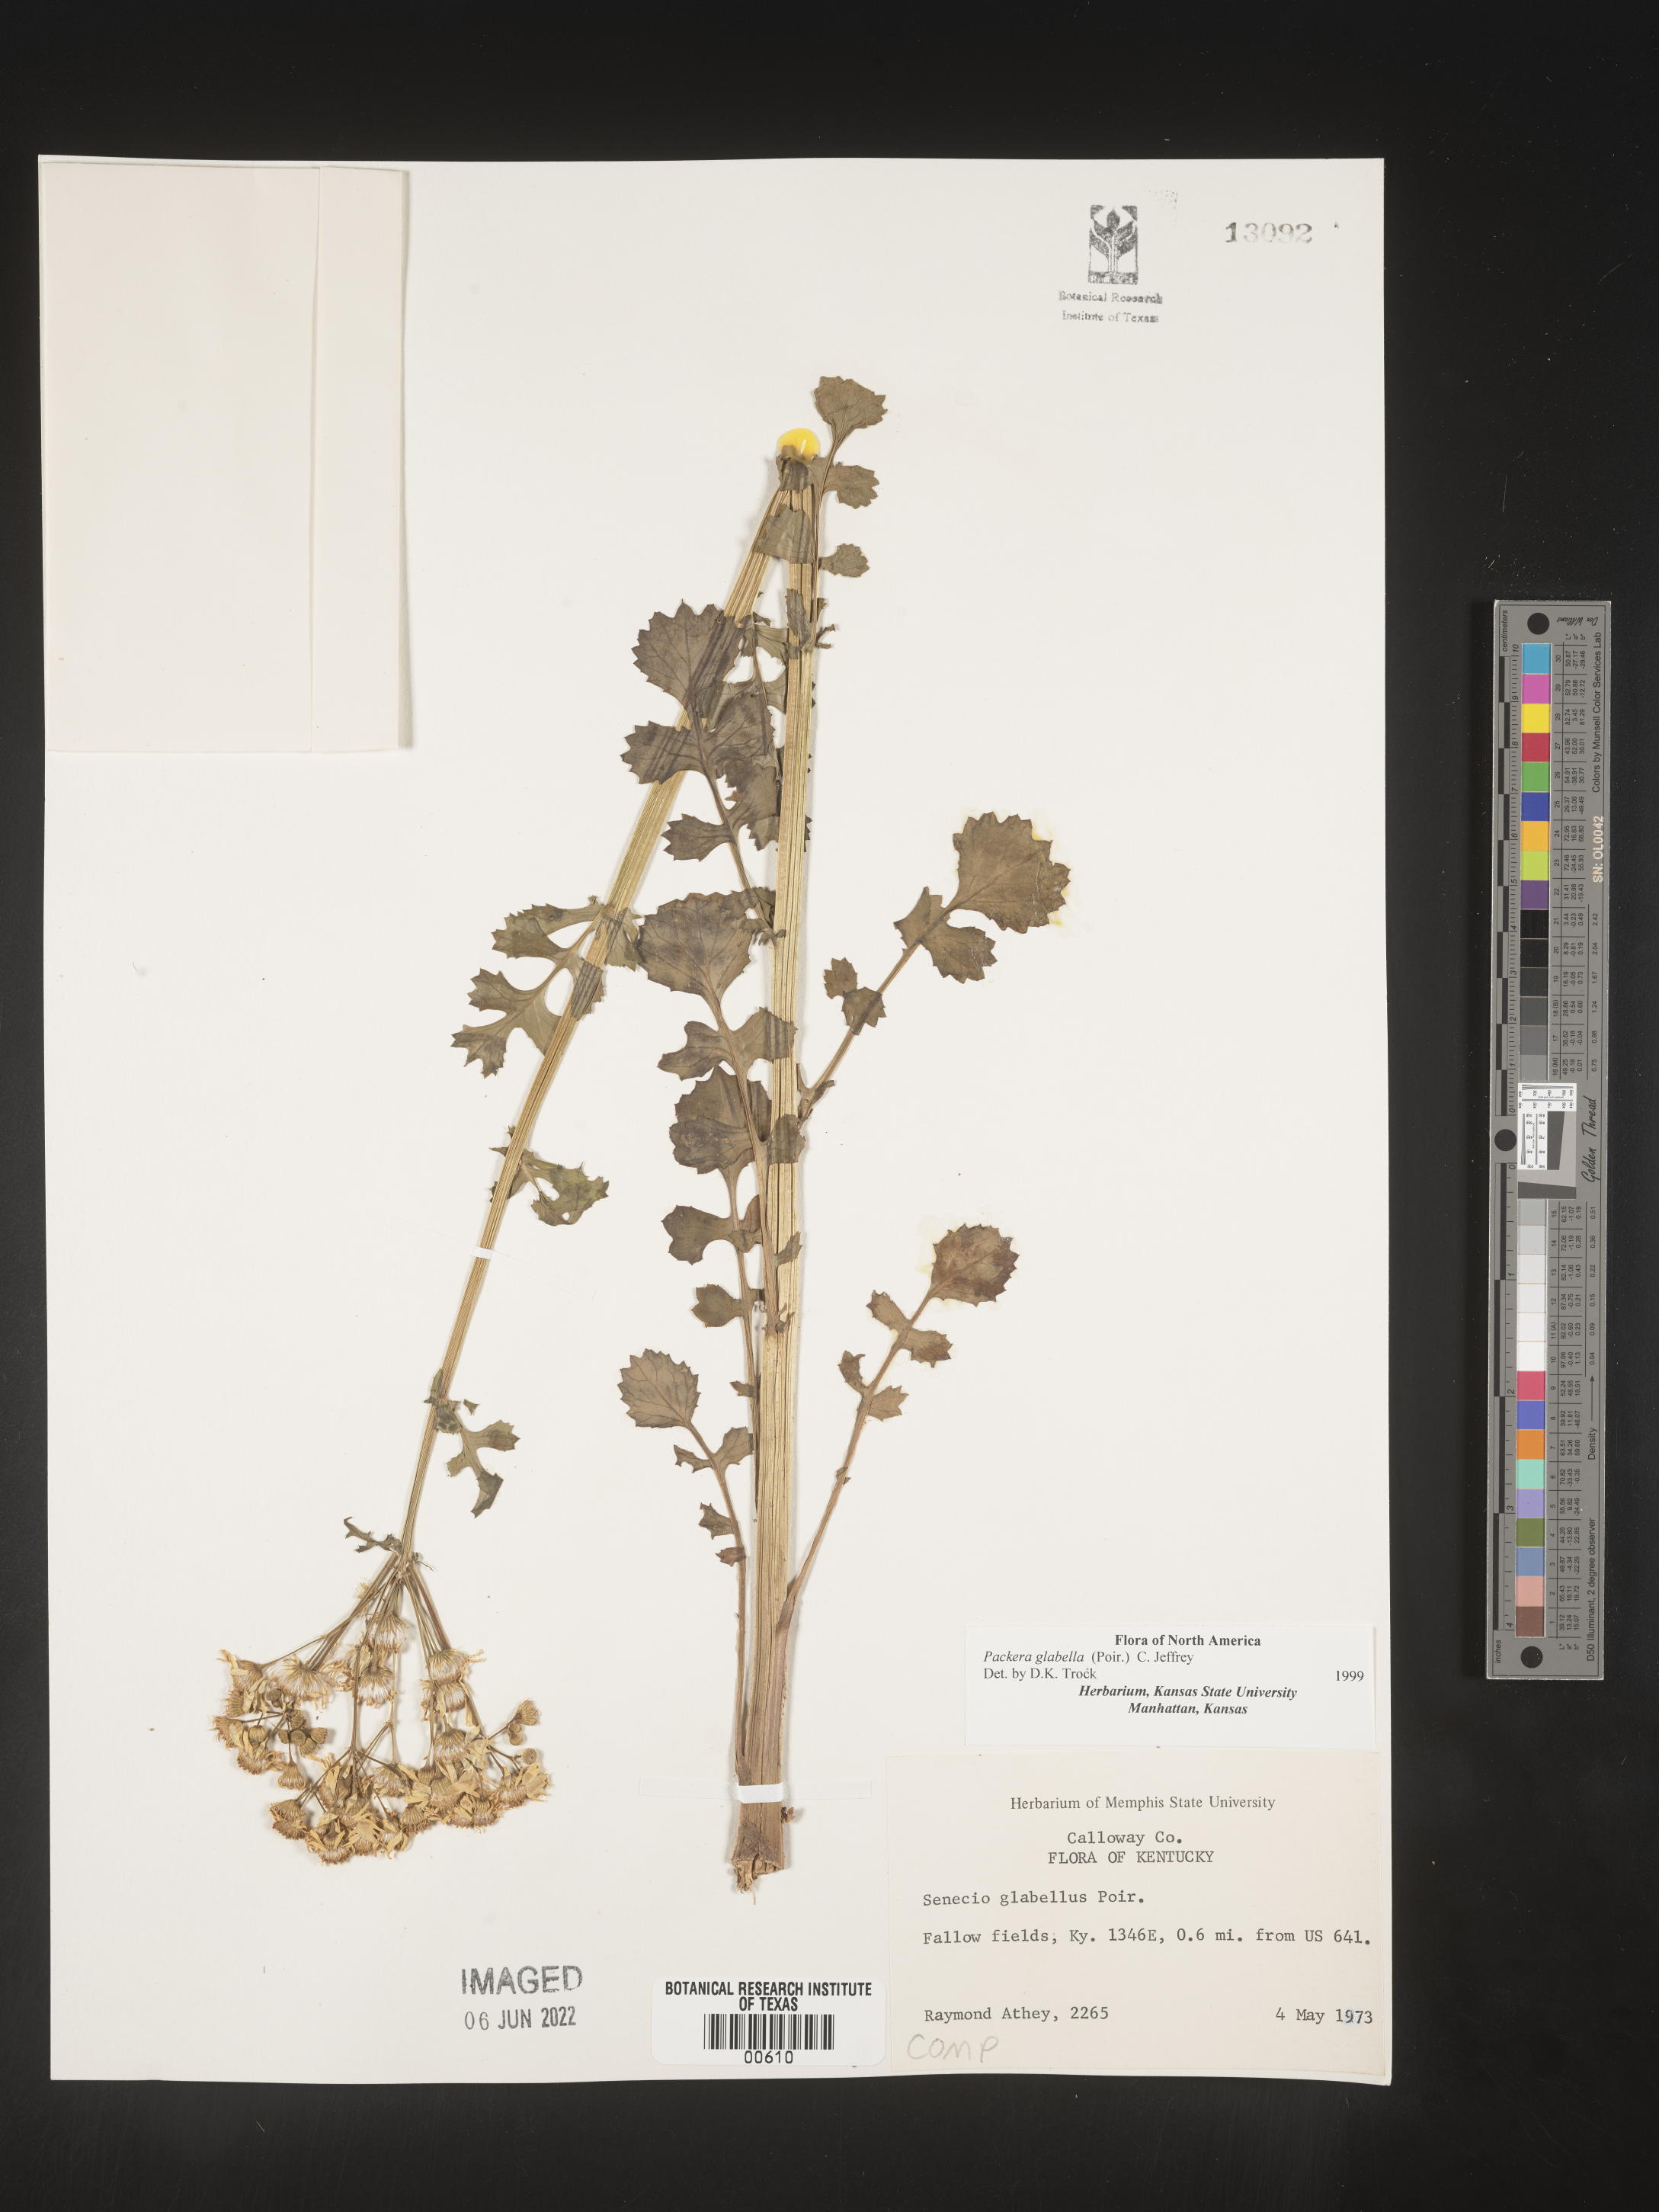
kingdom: Plantae
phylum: Tracheophyta
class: Magnoliopsida
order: Asterales
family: Asteraceae
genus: Packera
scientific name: Packera glabella
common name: Butterweed
